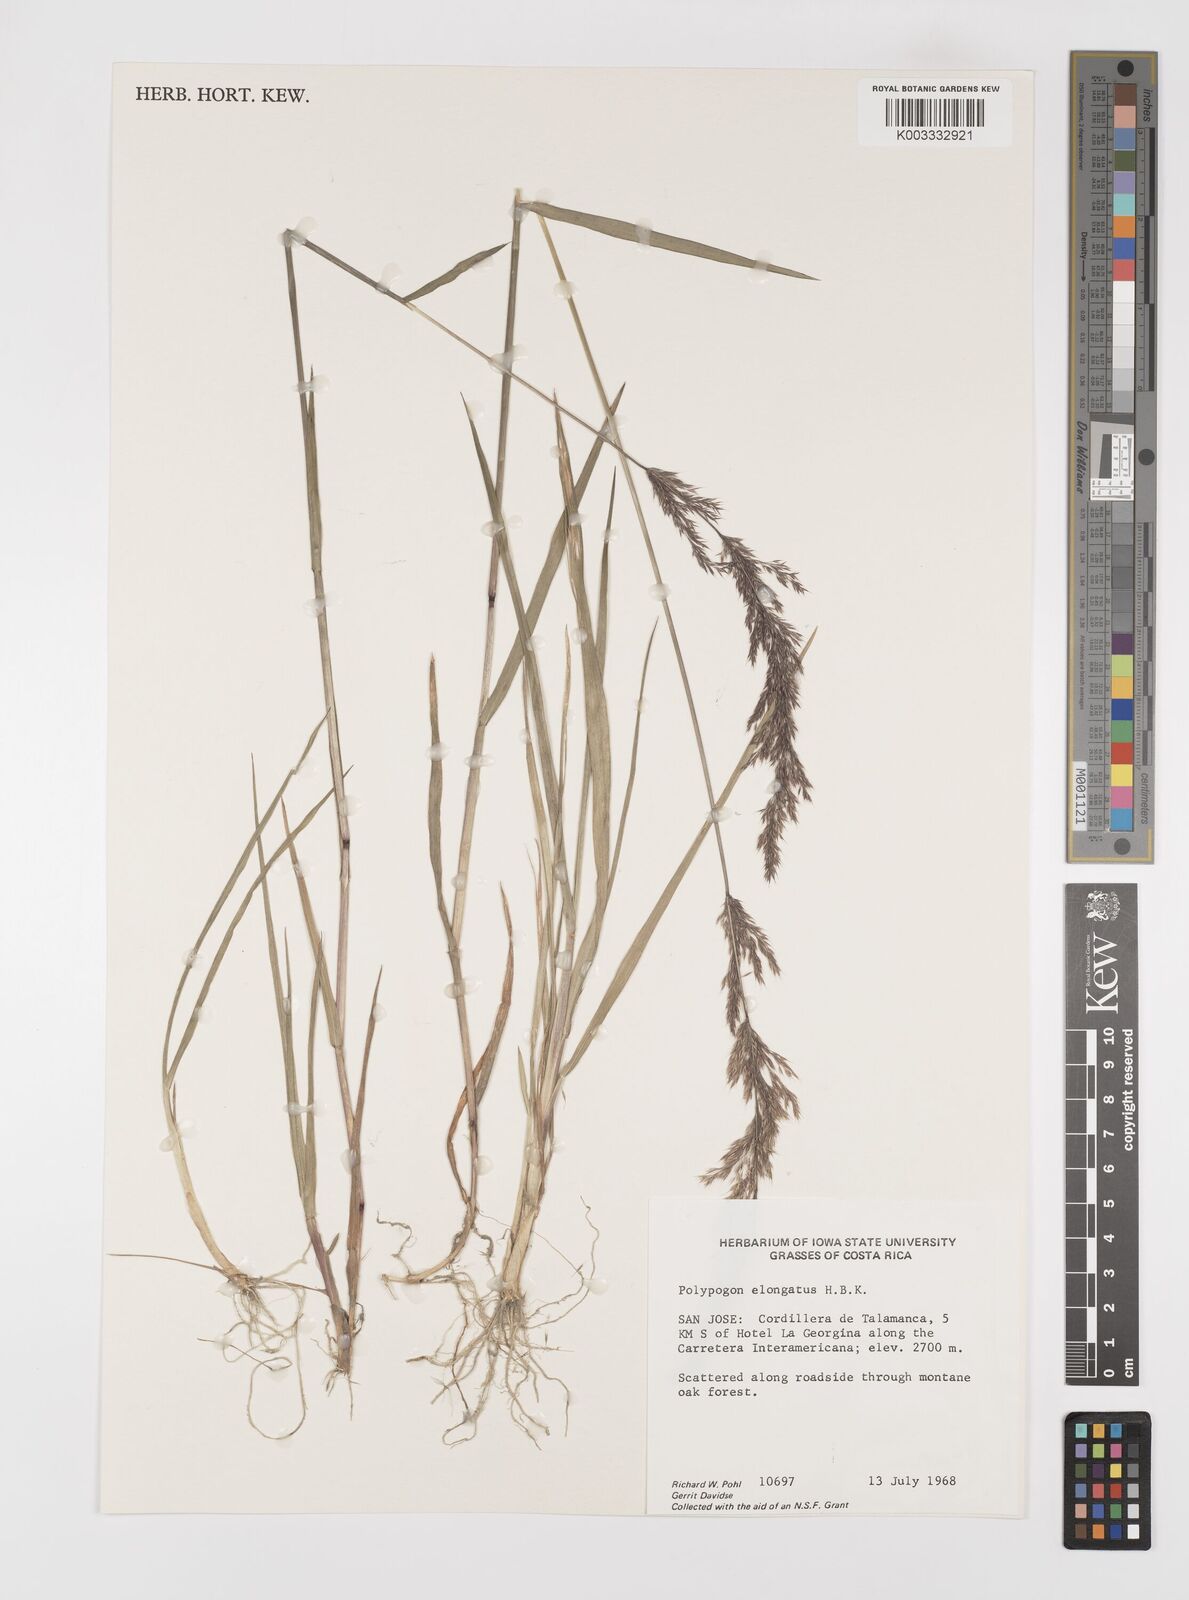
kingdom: Plantae
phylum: Tracheophyta
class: Liliopsida
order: Poales
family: Poaceae
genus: Polypogon
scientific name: Polypogon elongatus
